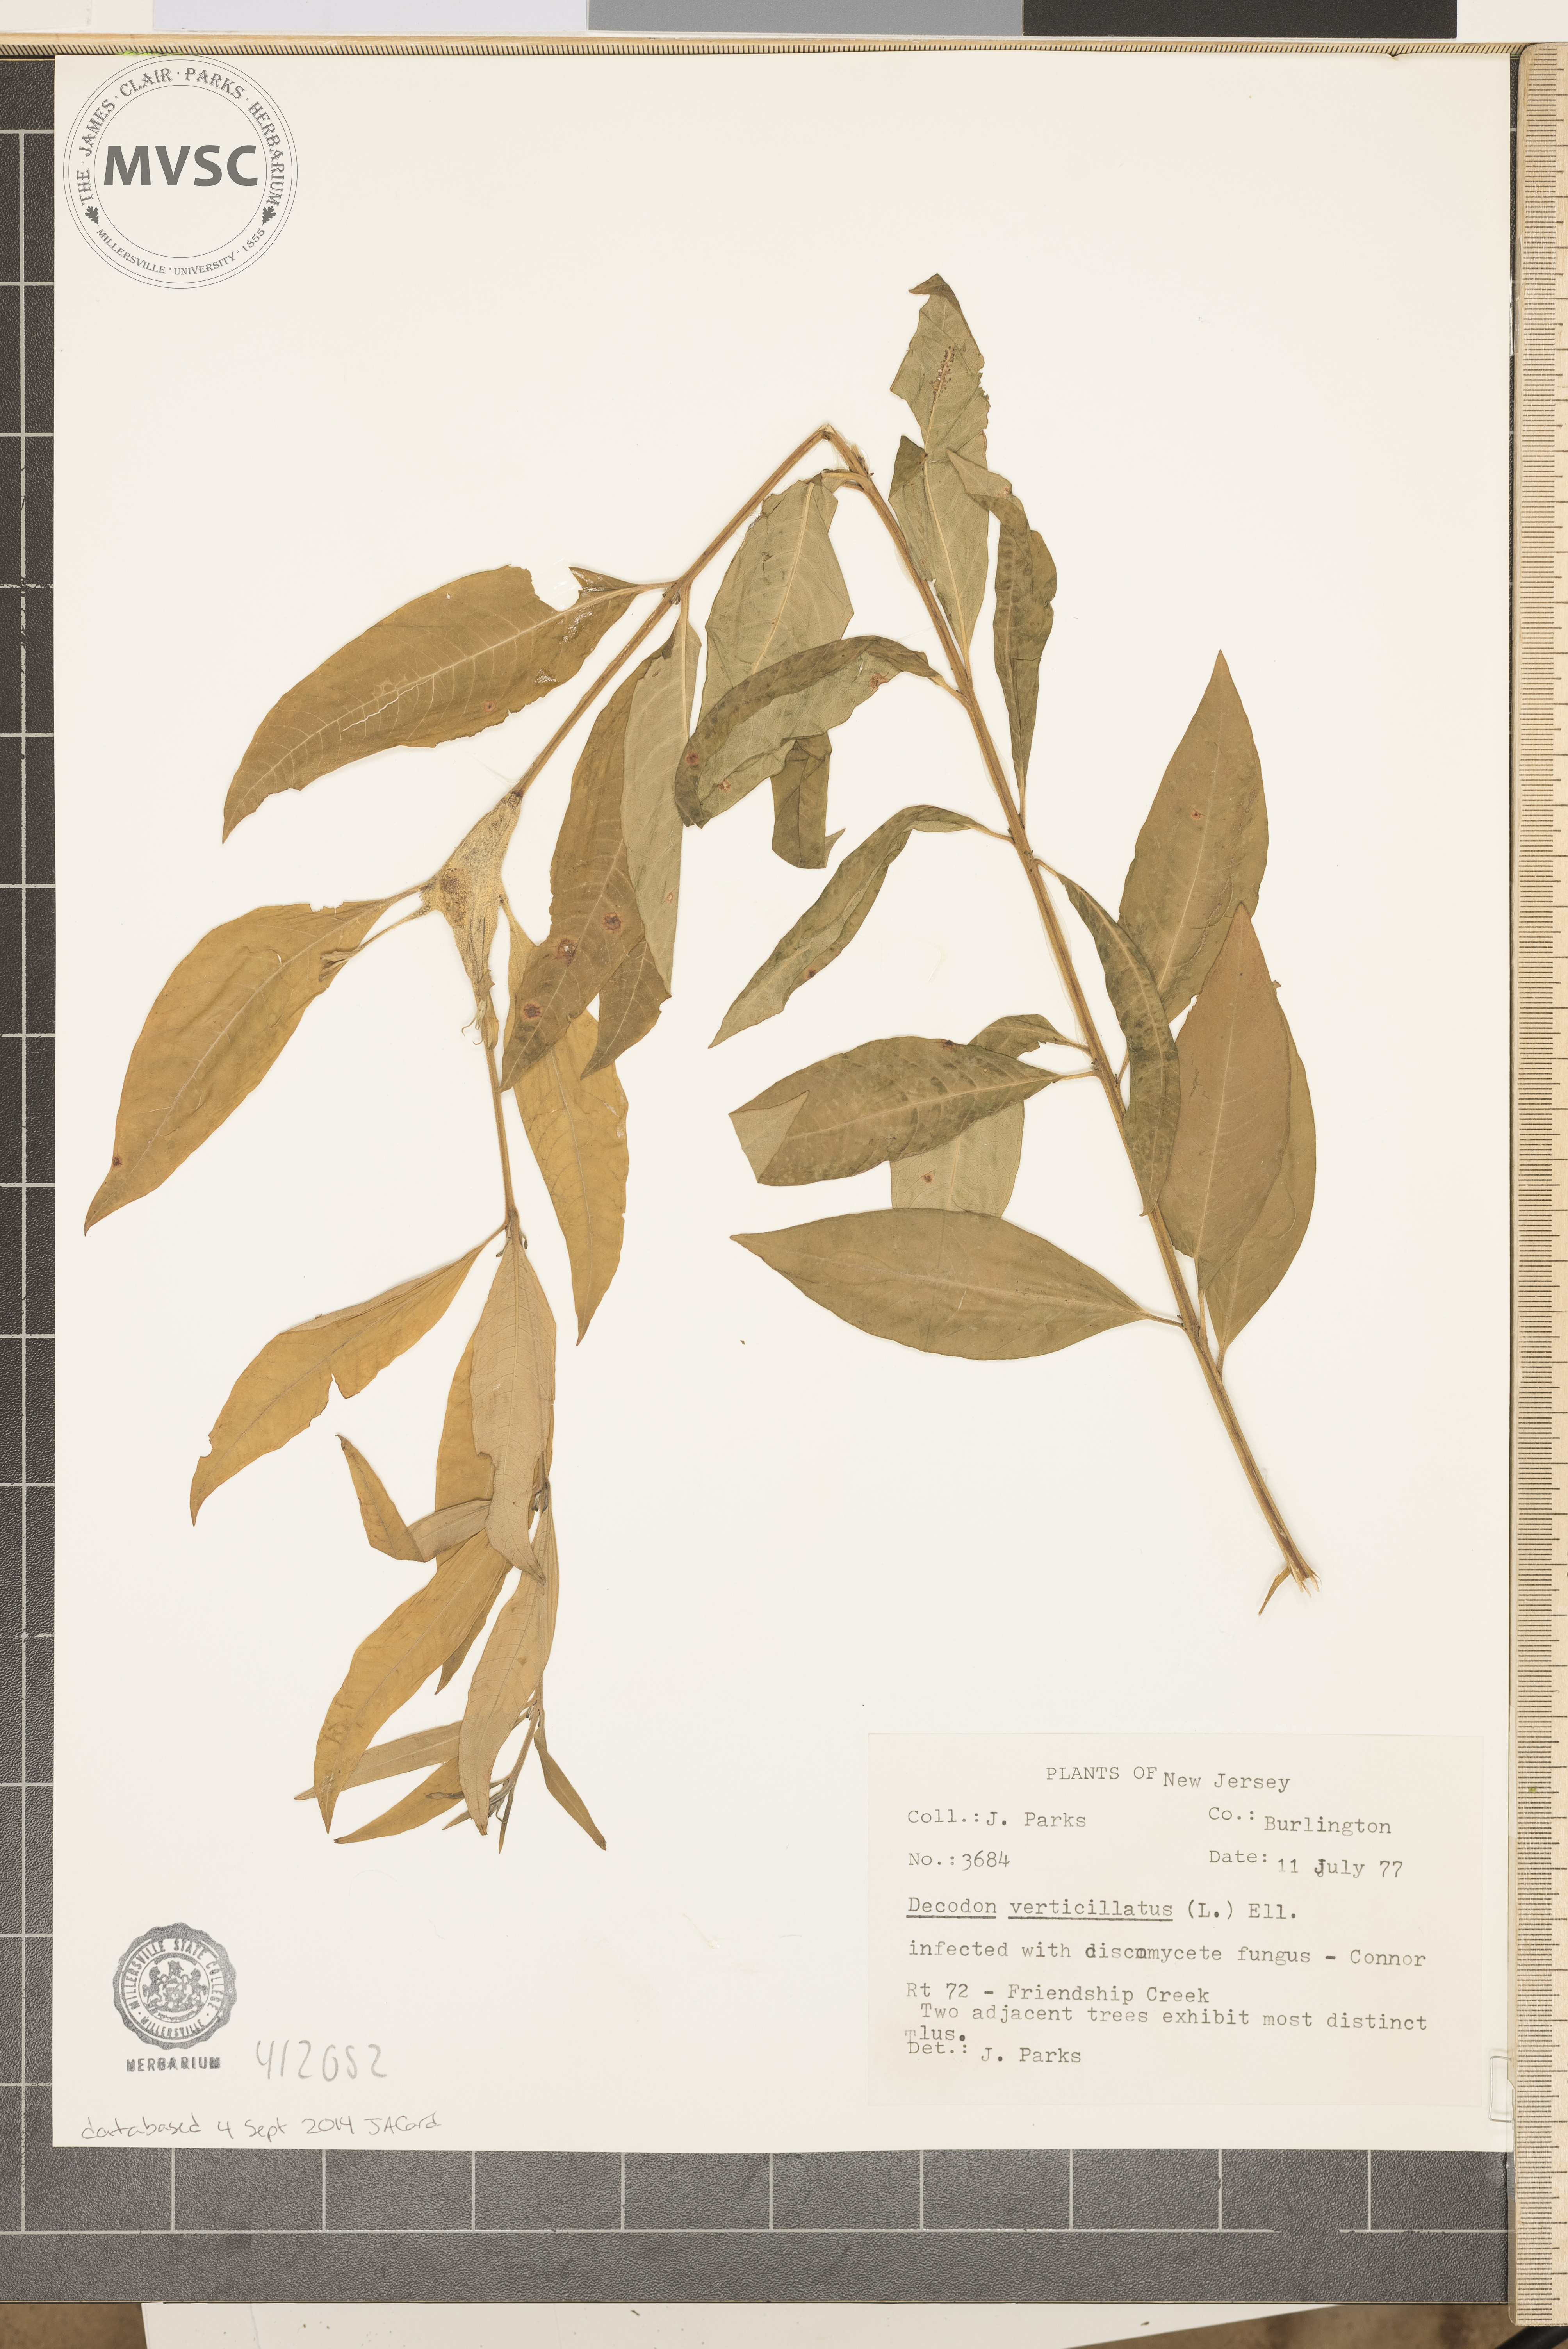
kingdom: Plantae
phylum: Tracheophyta
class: Magnoliopsida
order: Myrtales
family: Lythraceae
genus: Decodon
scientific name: Decodon verticillatus
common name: Hairy swamp loosestrife
